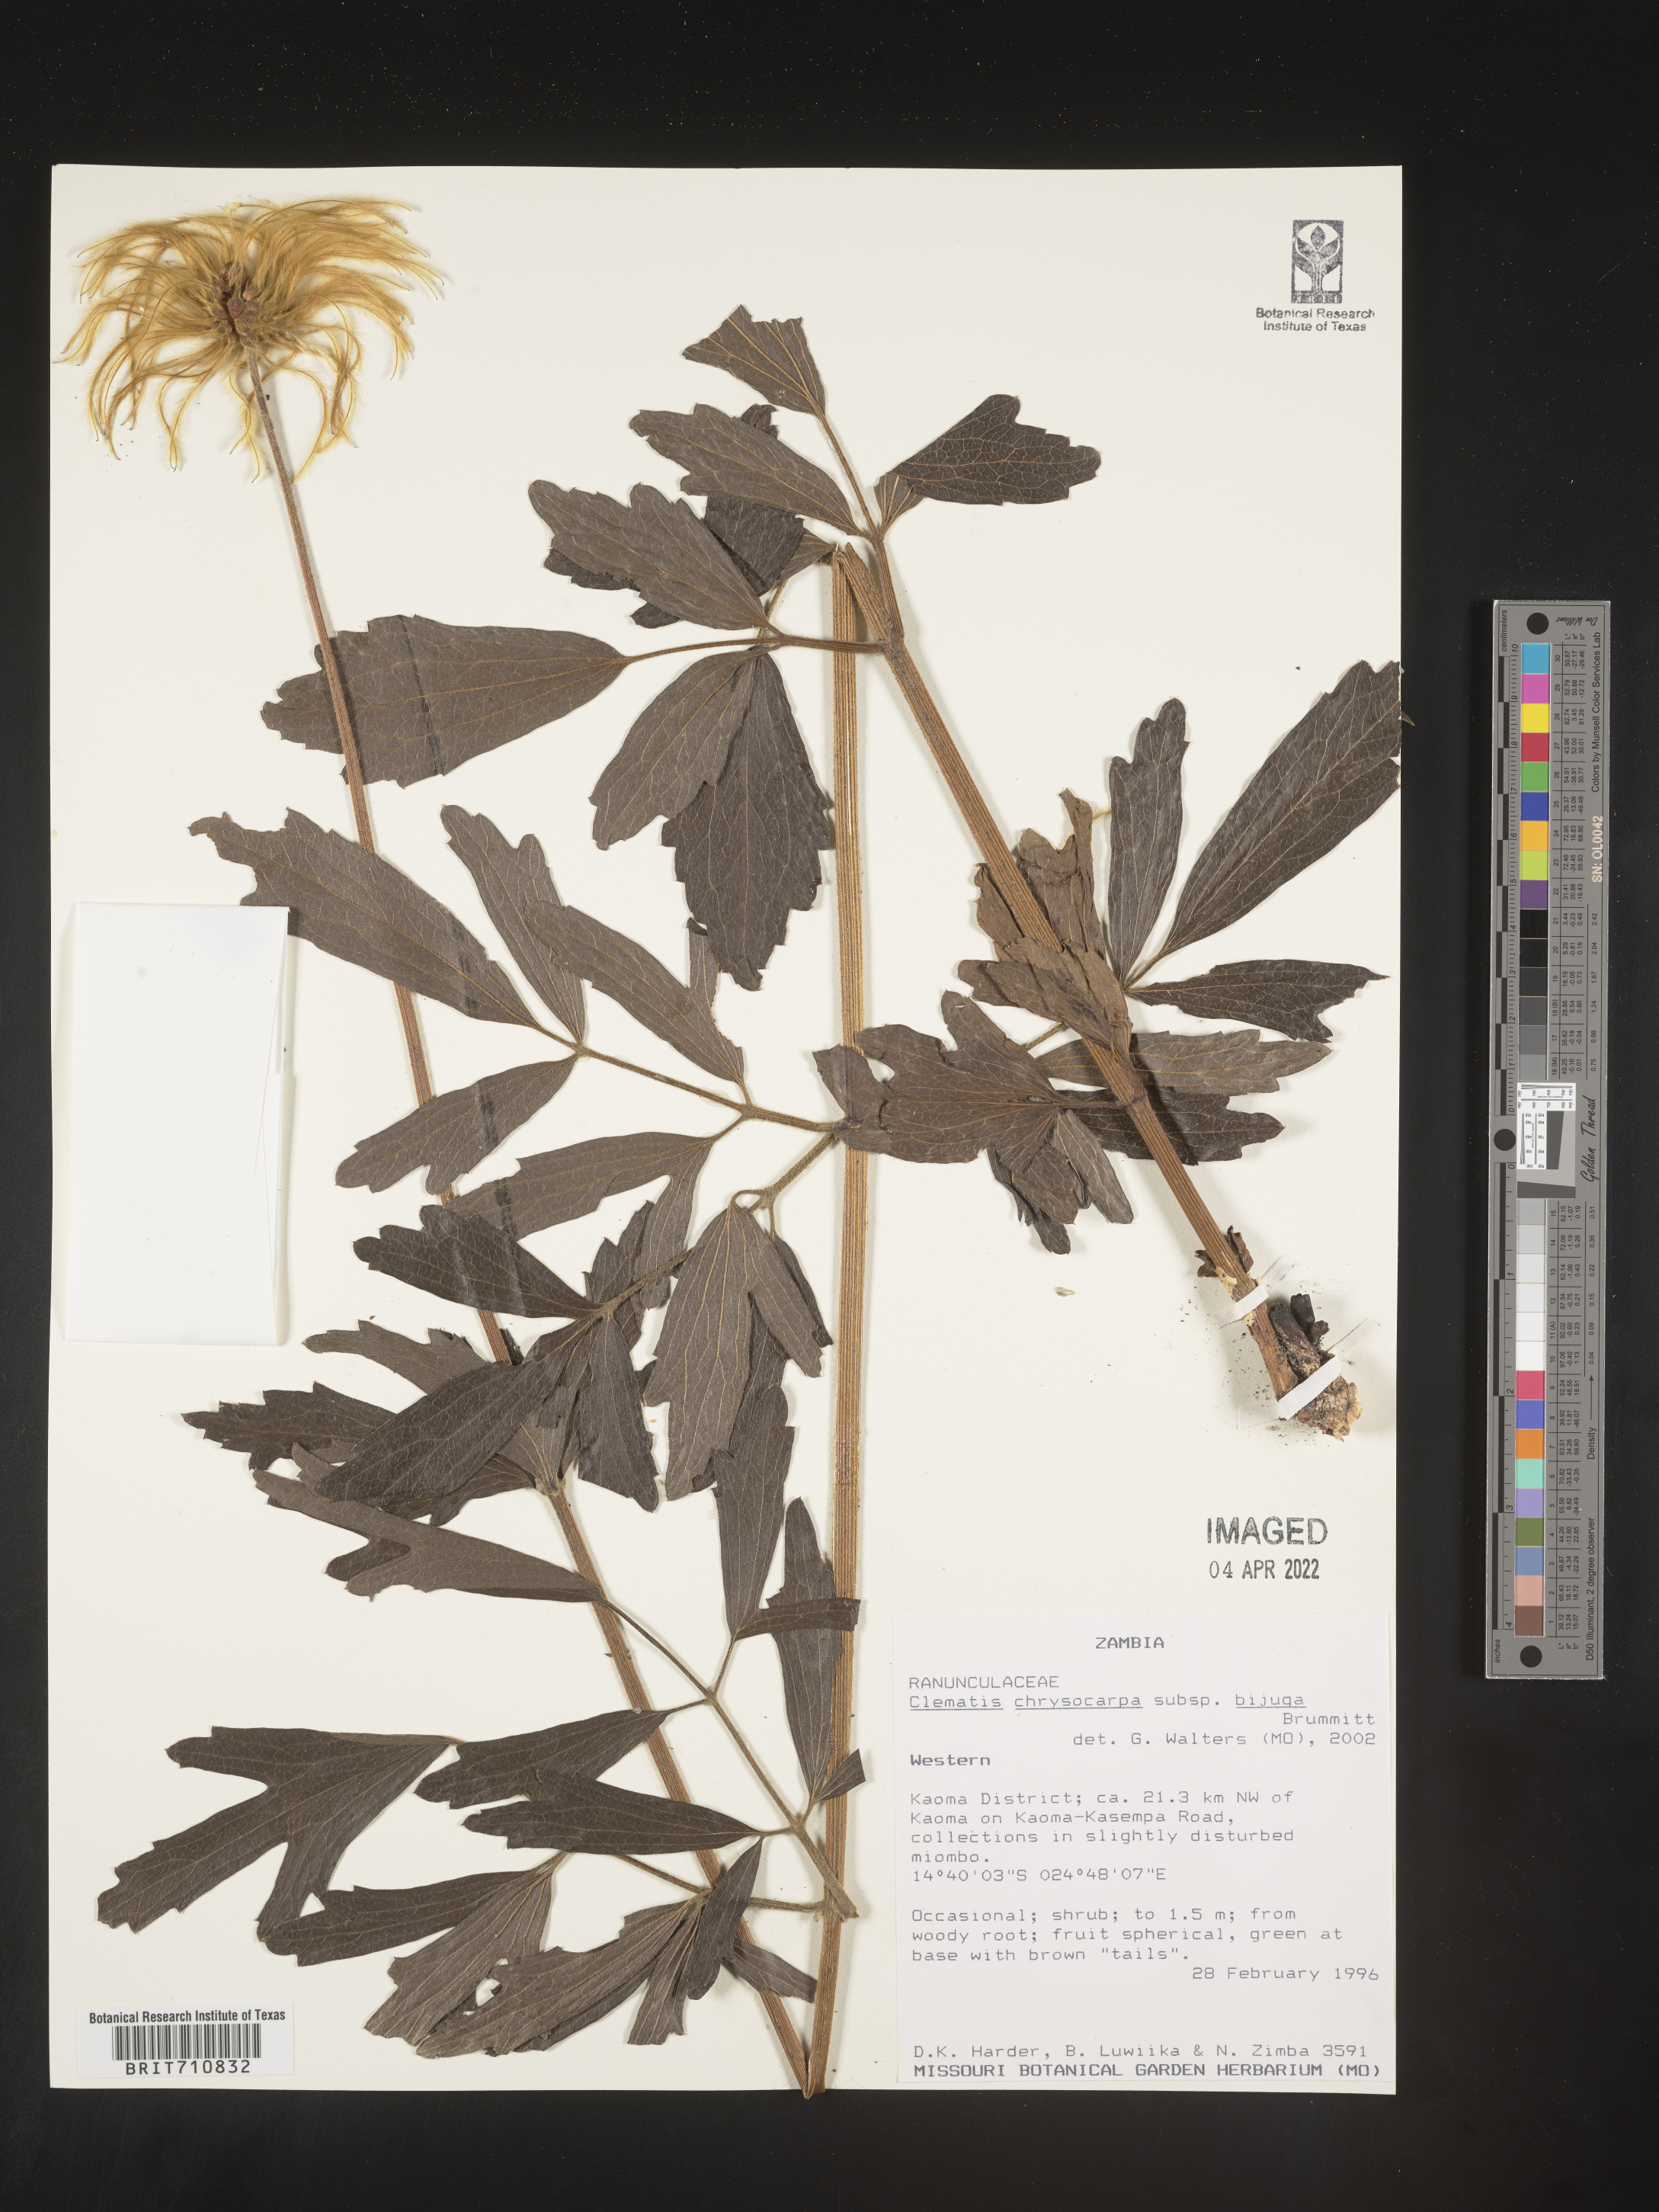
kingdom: Plantae
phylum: Tracheophyta
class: Magnoliopsida
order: Ranunculales
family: Ranunculaceae
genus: Clematis
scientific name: Clematis
